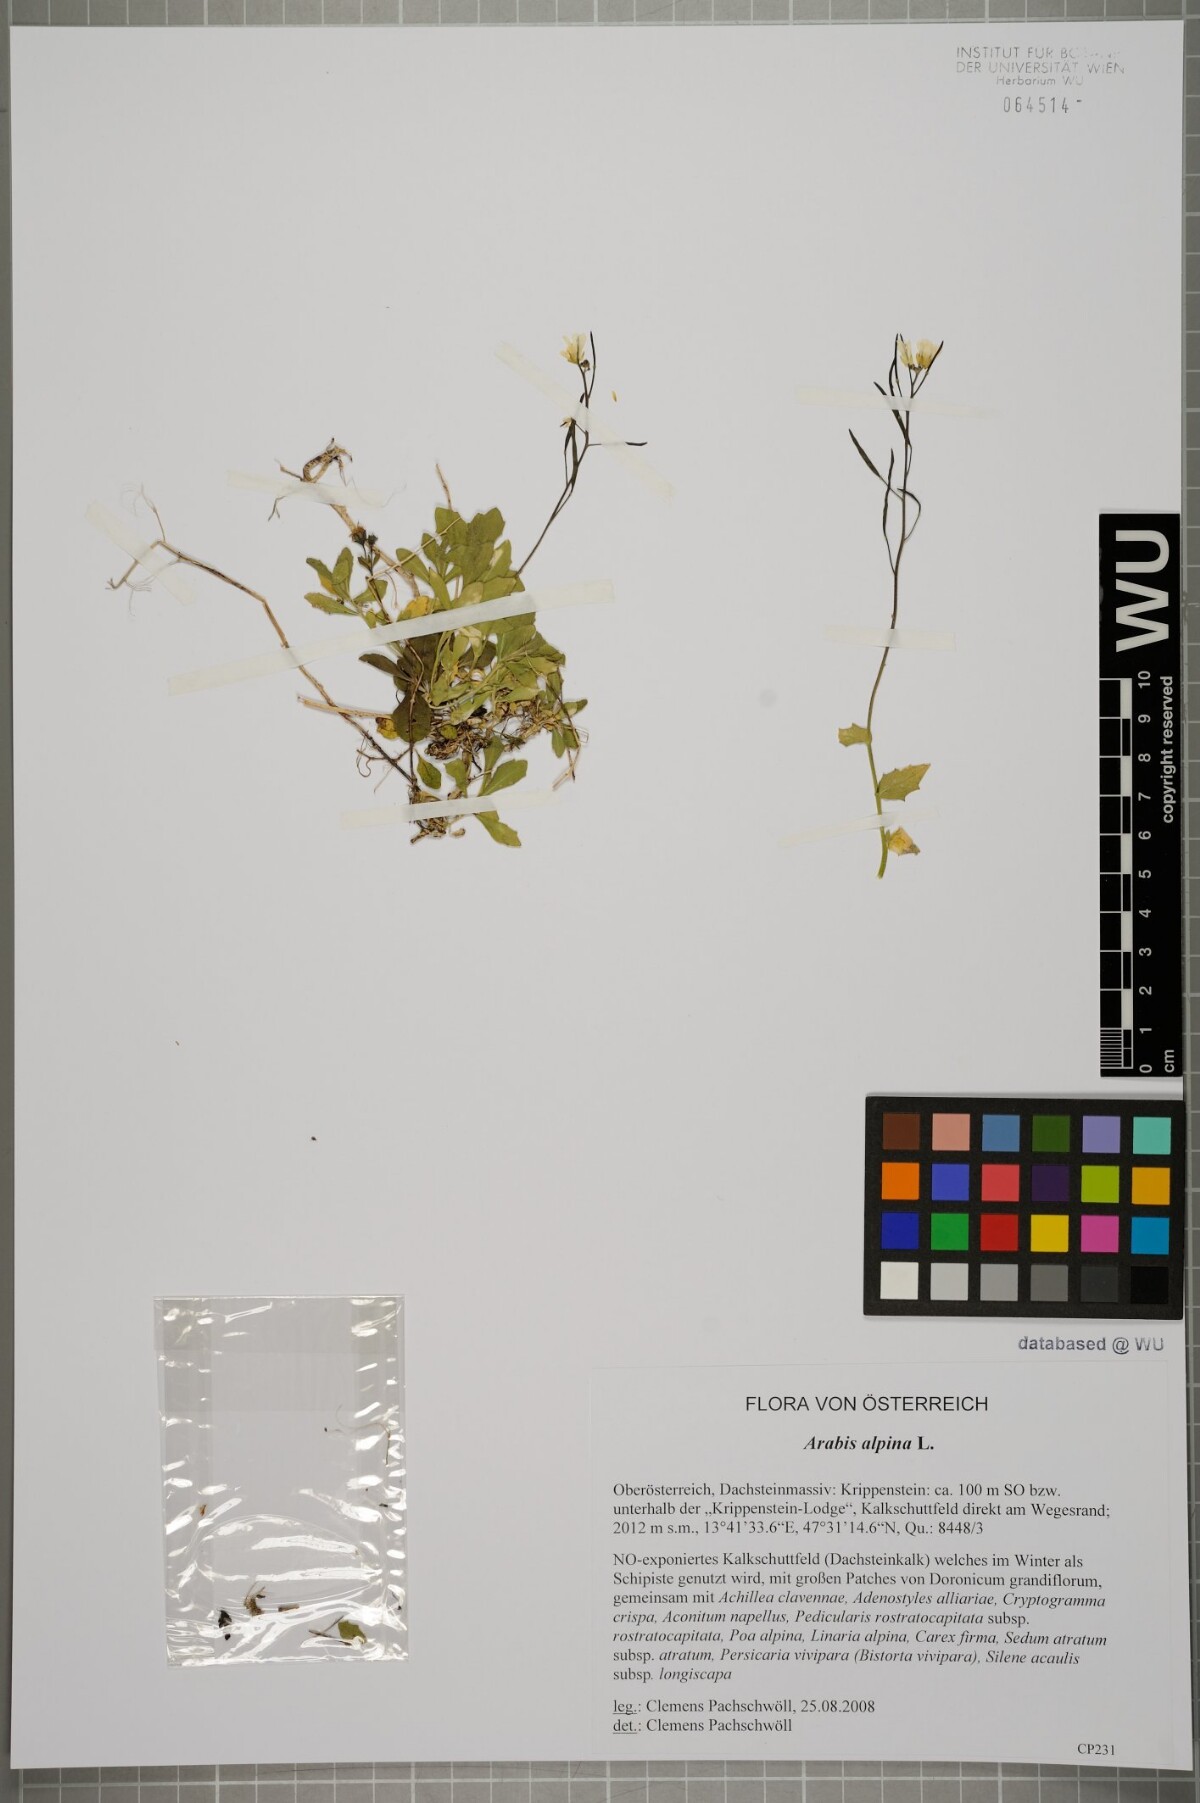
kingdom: Plantae
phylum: Tracheophyta
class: Magnoliopsida
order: Brassicales
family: Brassicaceae
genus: Arabis
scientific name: Arabis alpina
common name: Alpine rock-cress
